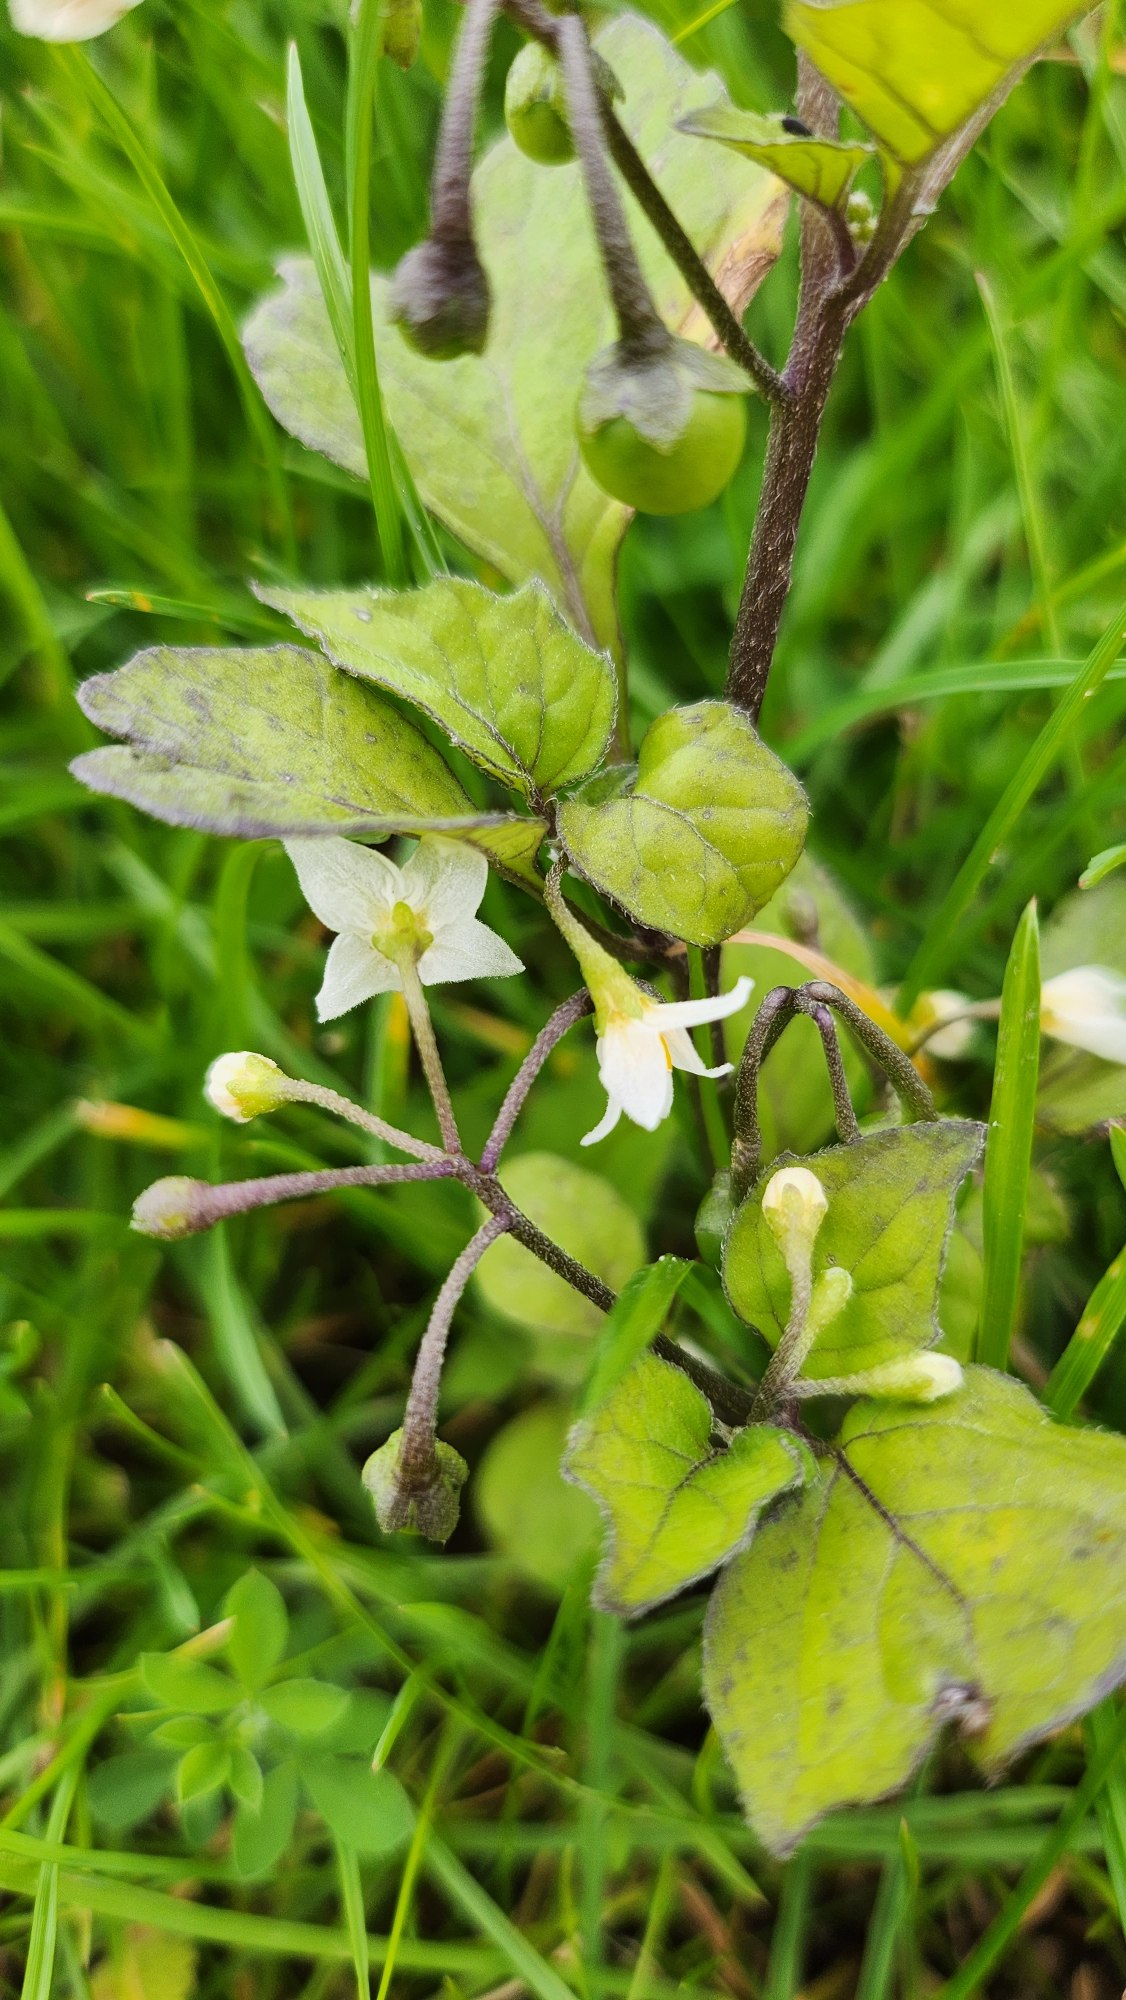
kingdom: Plantae
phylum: Tracheophyta
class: Magnoliopsida
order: Solanales
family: Solanaceae
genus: Solanum
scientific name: Solanum nigrum
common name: Sort natskygge
